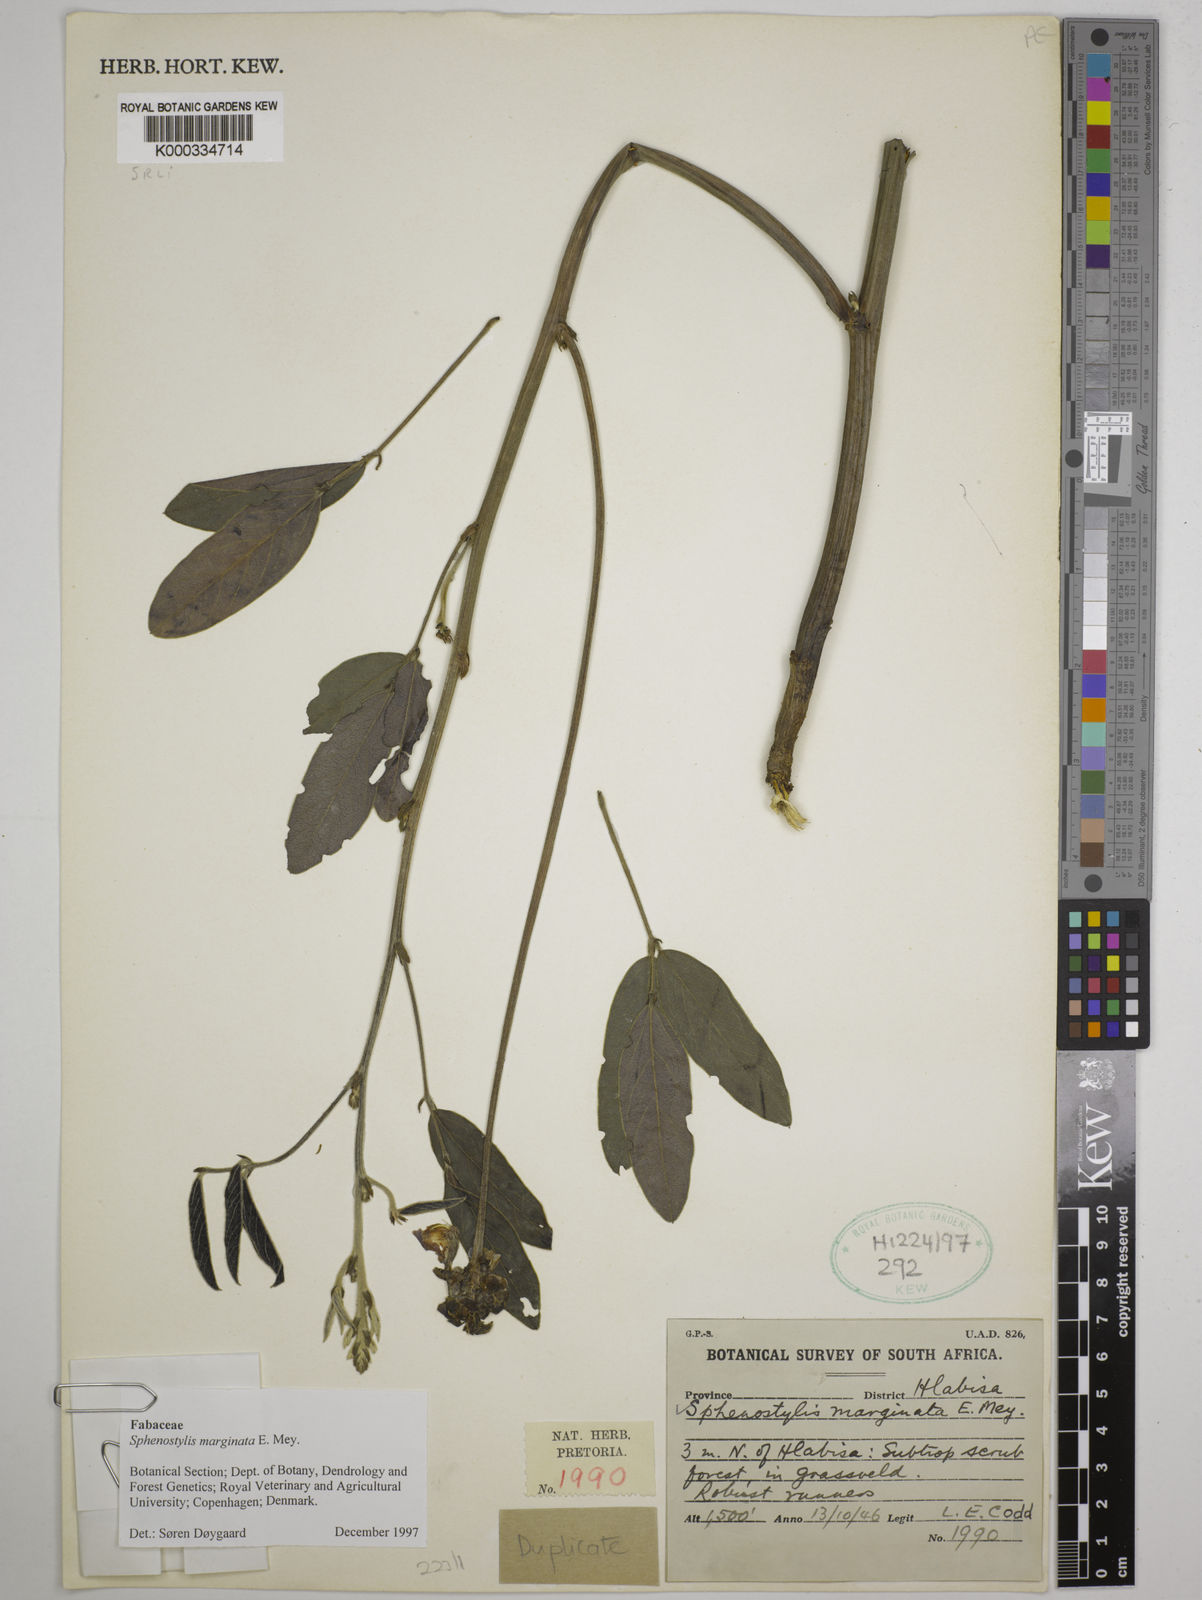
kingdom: Plantae
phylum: Tracheophyta
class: Magnoliopsida
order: Fabales
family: Fabaceae
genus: Sphenostylis
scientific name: Sphenostylis marginata
